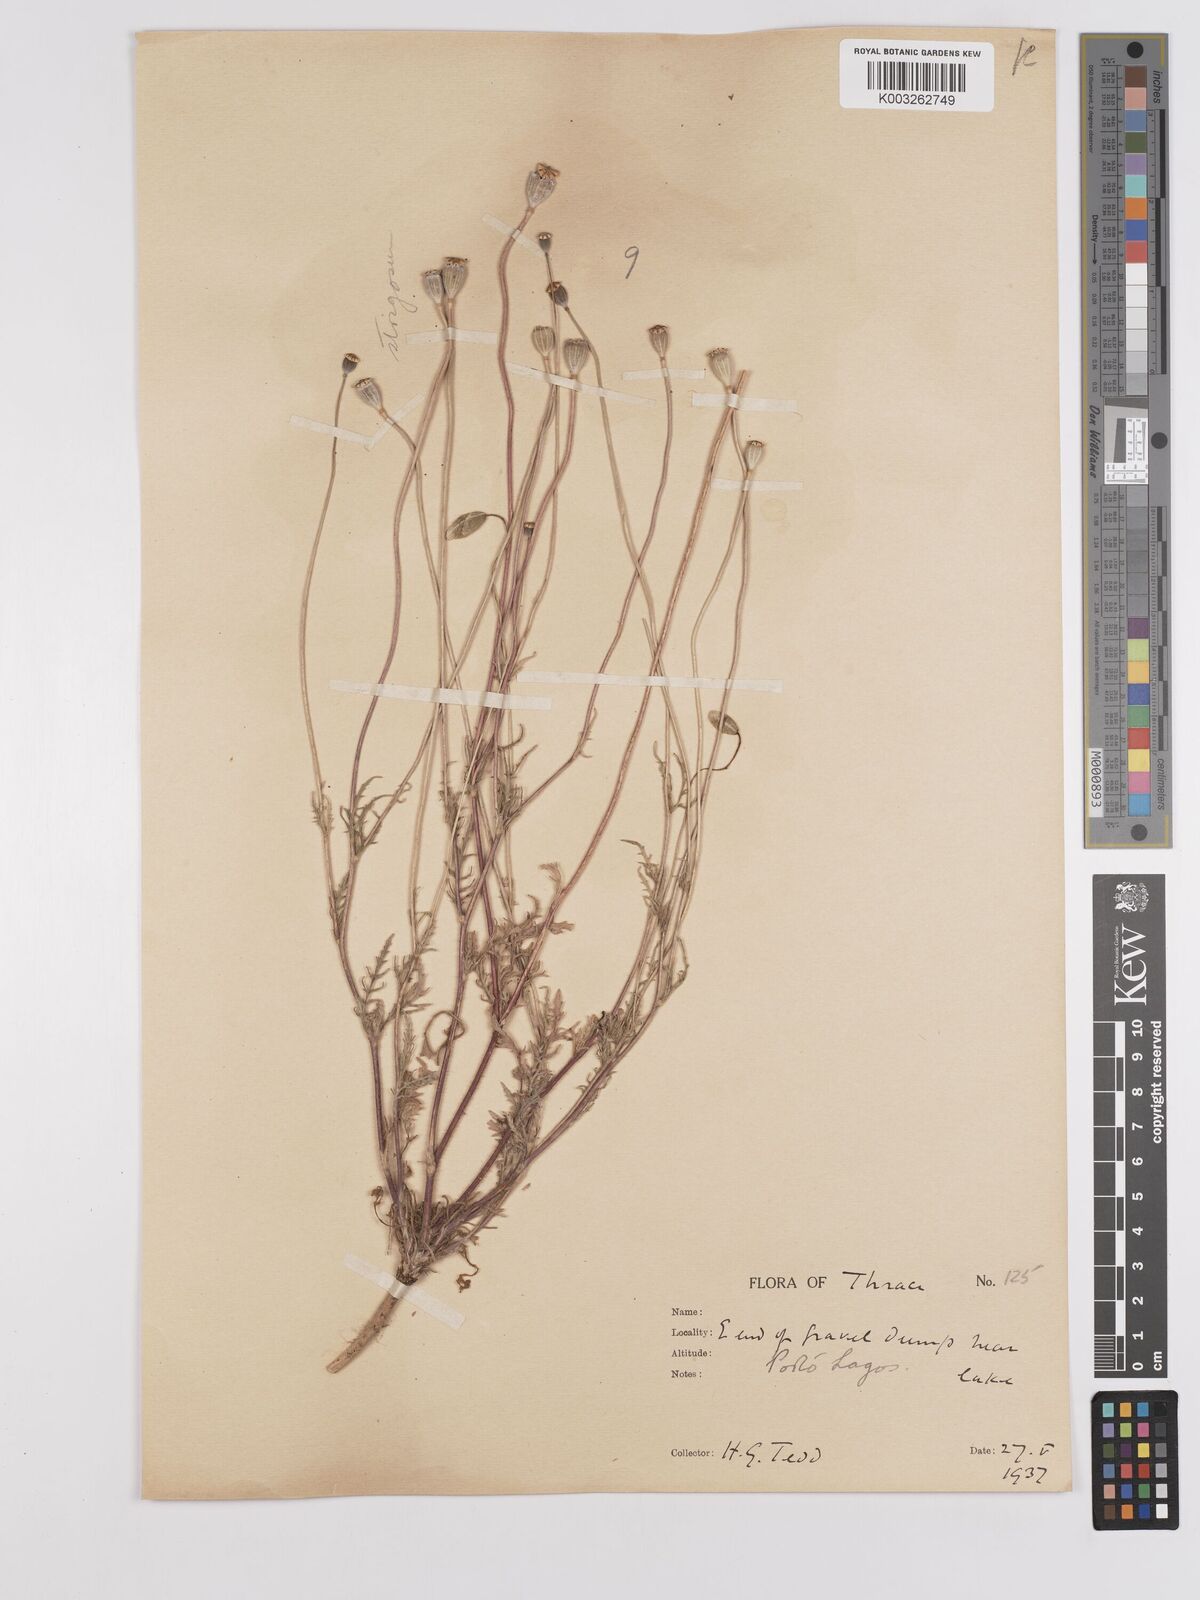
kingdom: Plantae
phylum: Tracheophyta
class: Magnoliopsida
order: Ranunculales
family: Papaveraceae
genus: Papaver
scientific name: Papaver
